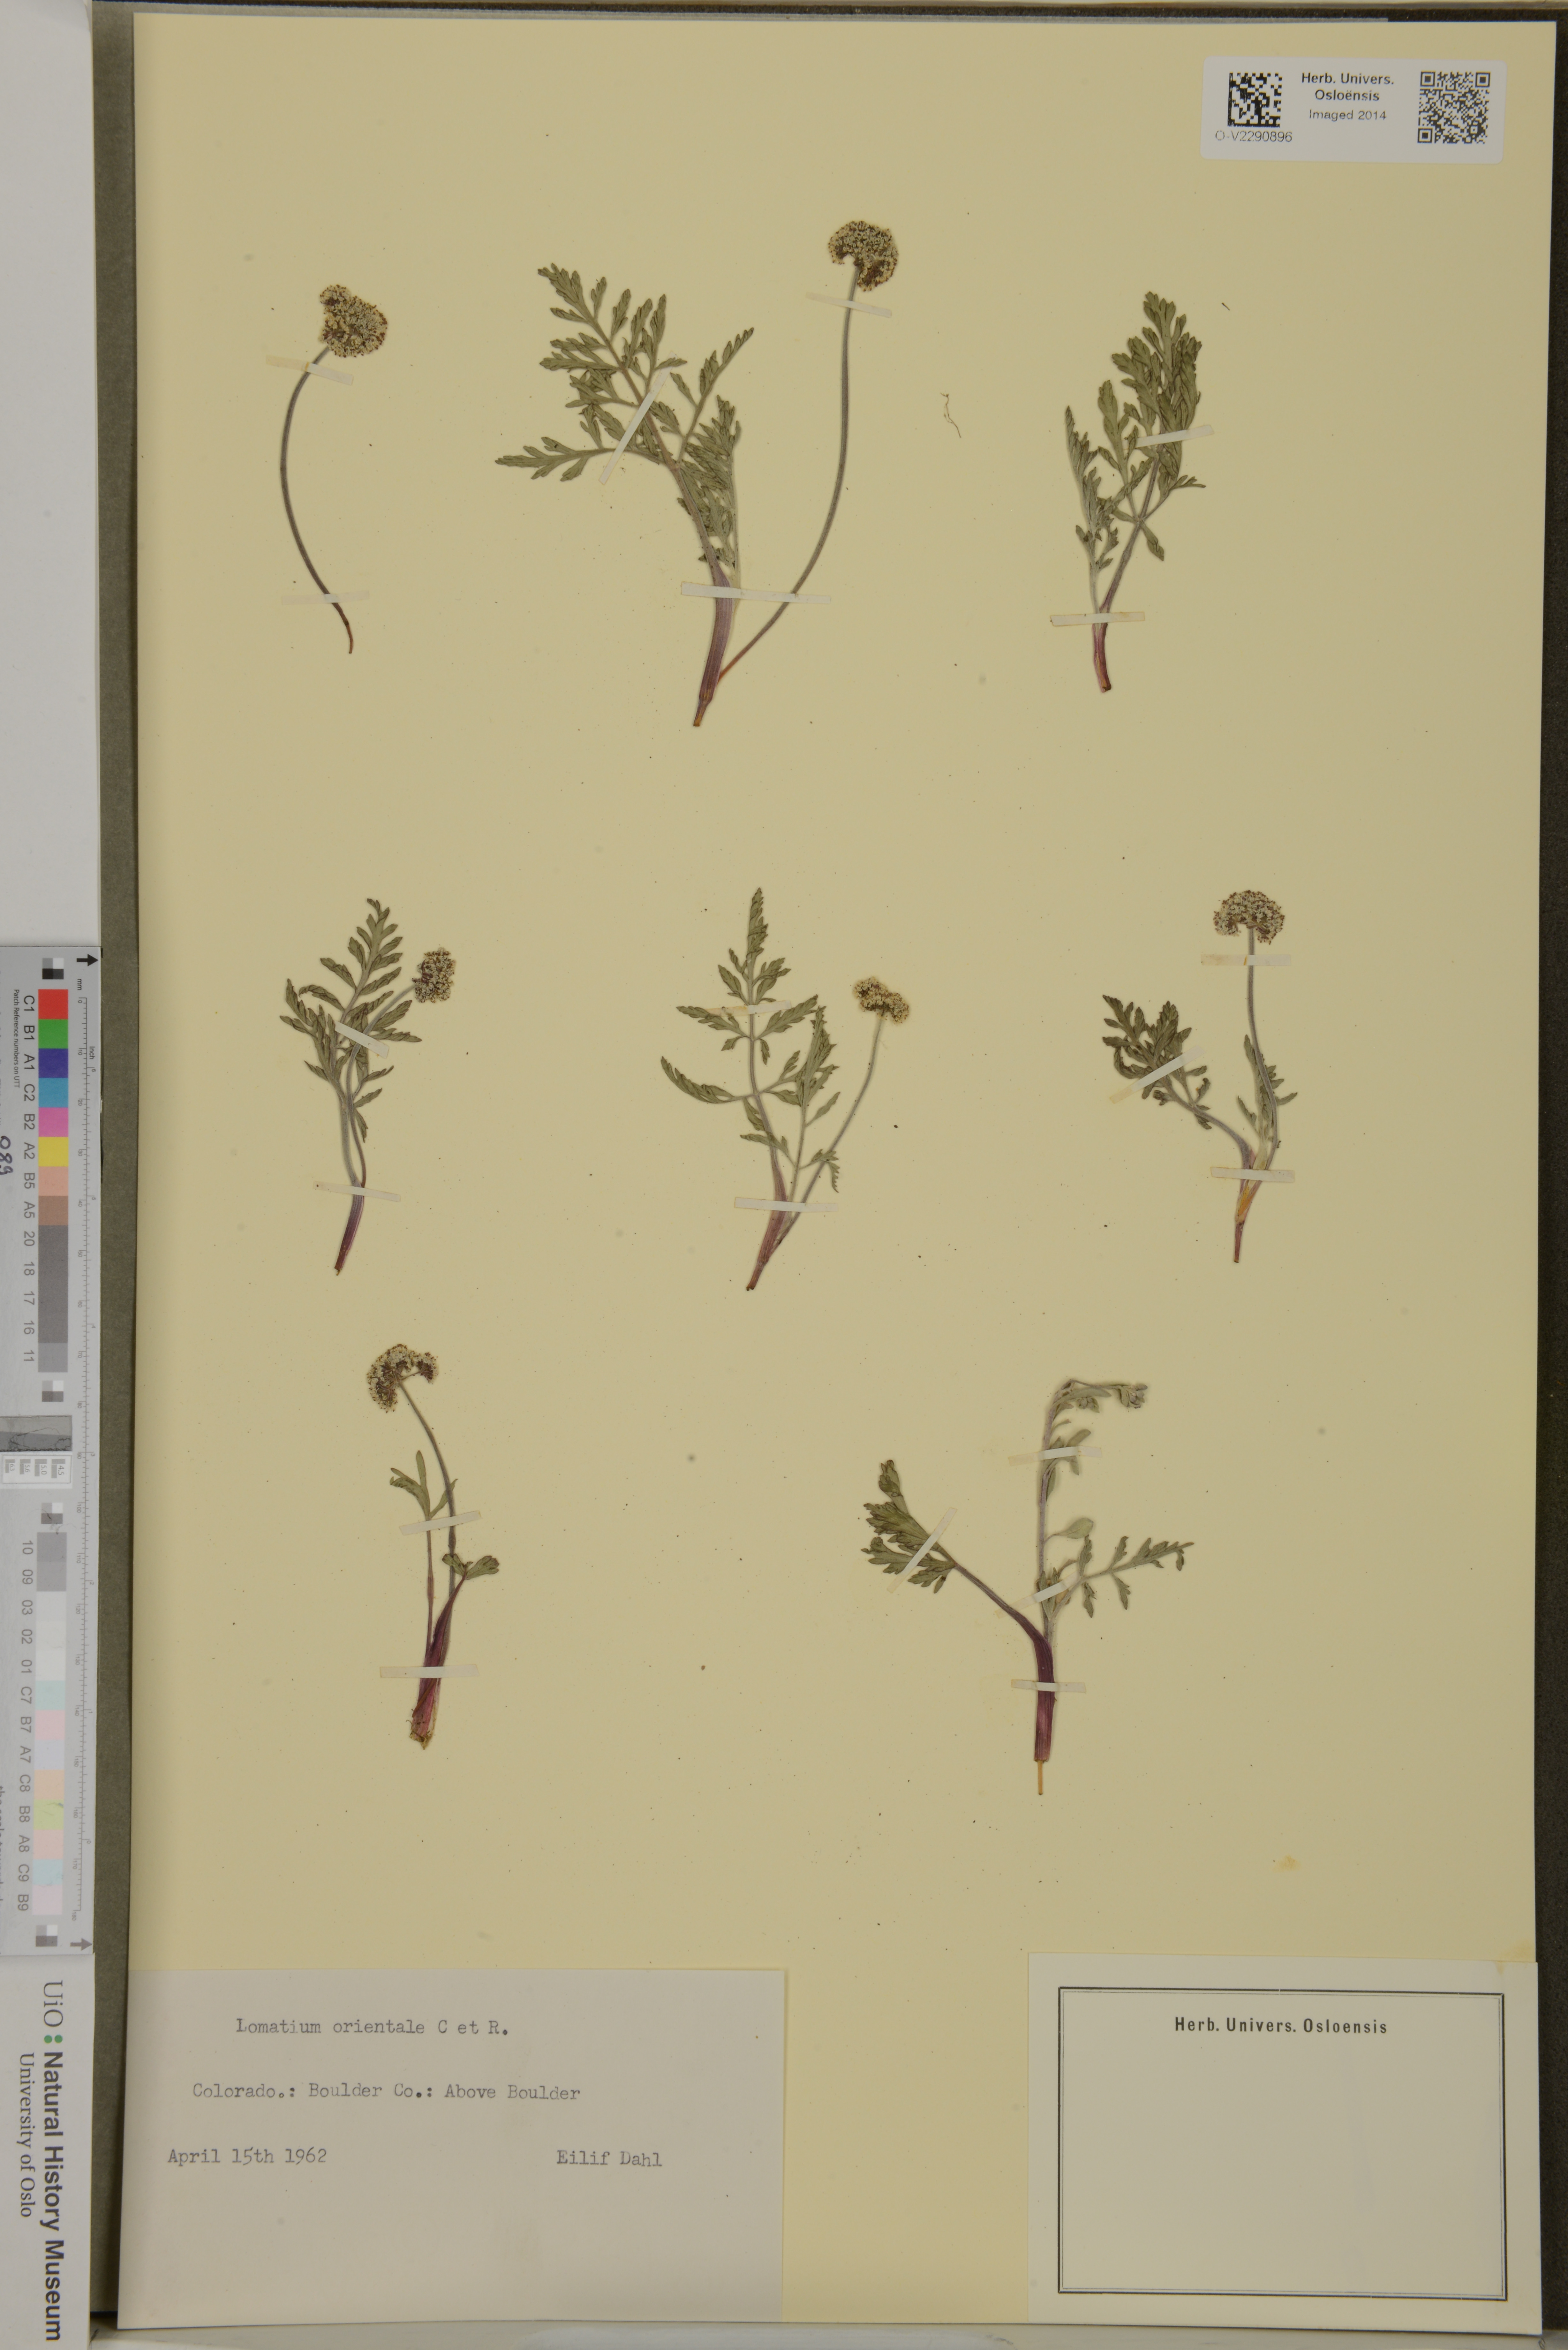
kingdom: Plantae
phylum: Tracheophyta
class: Magnoliopsida
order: Apiales
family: Apiaceae
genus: Lomatium
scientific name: Lomatium orientale
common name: Eastern cous
